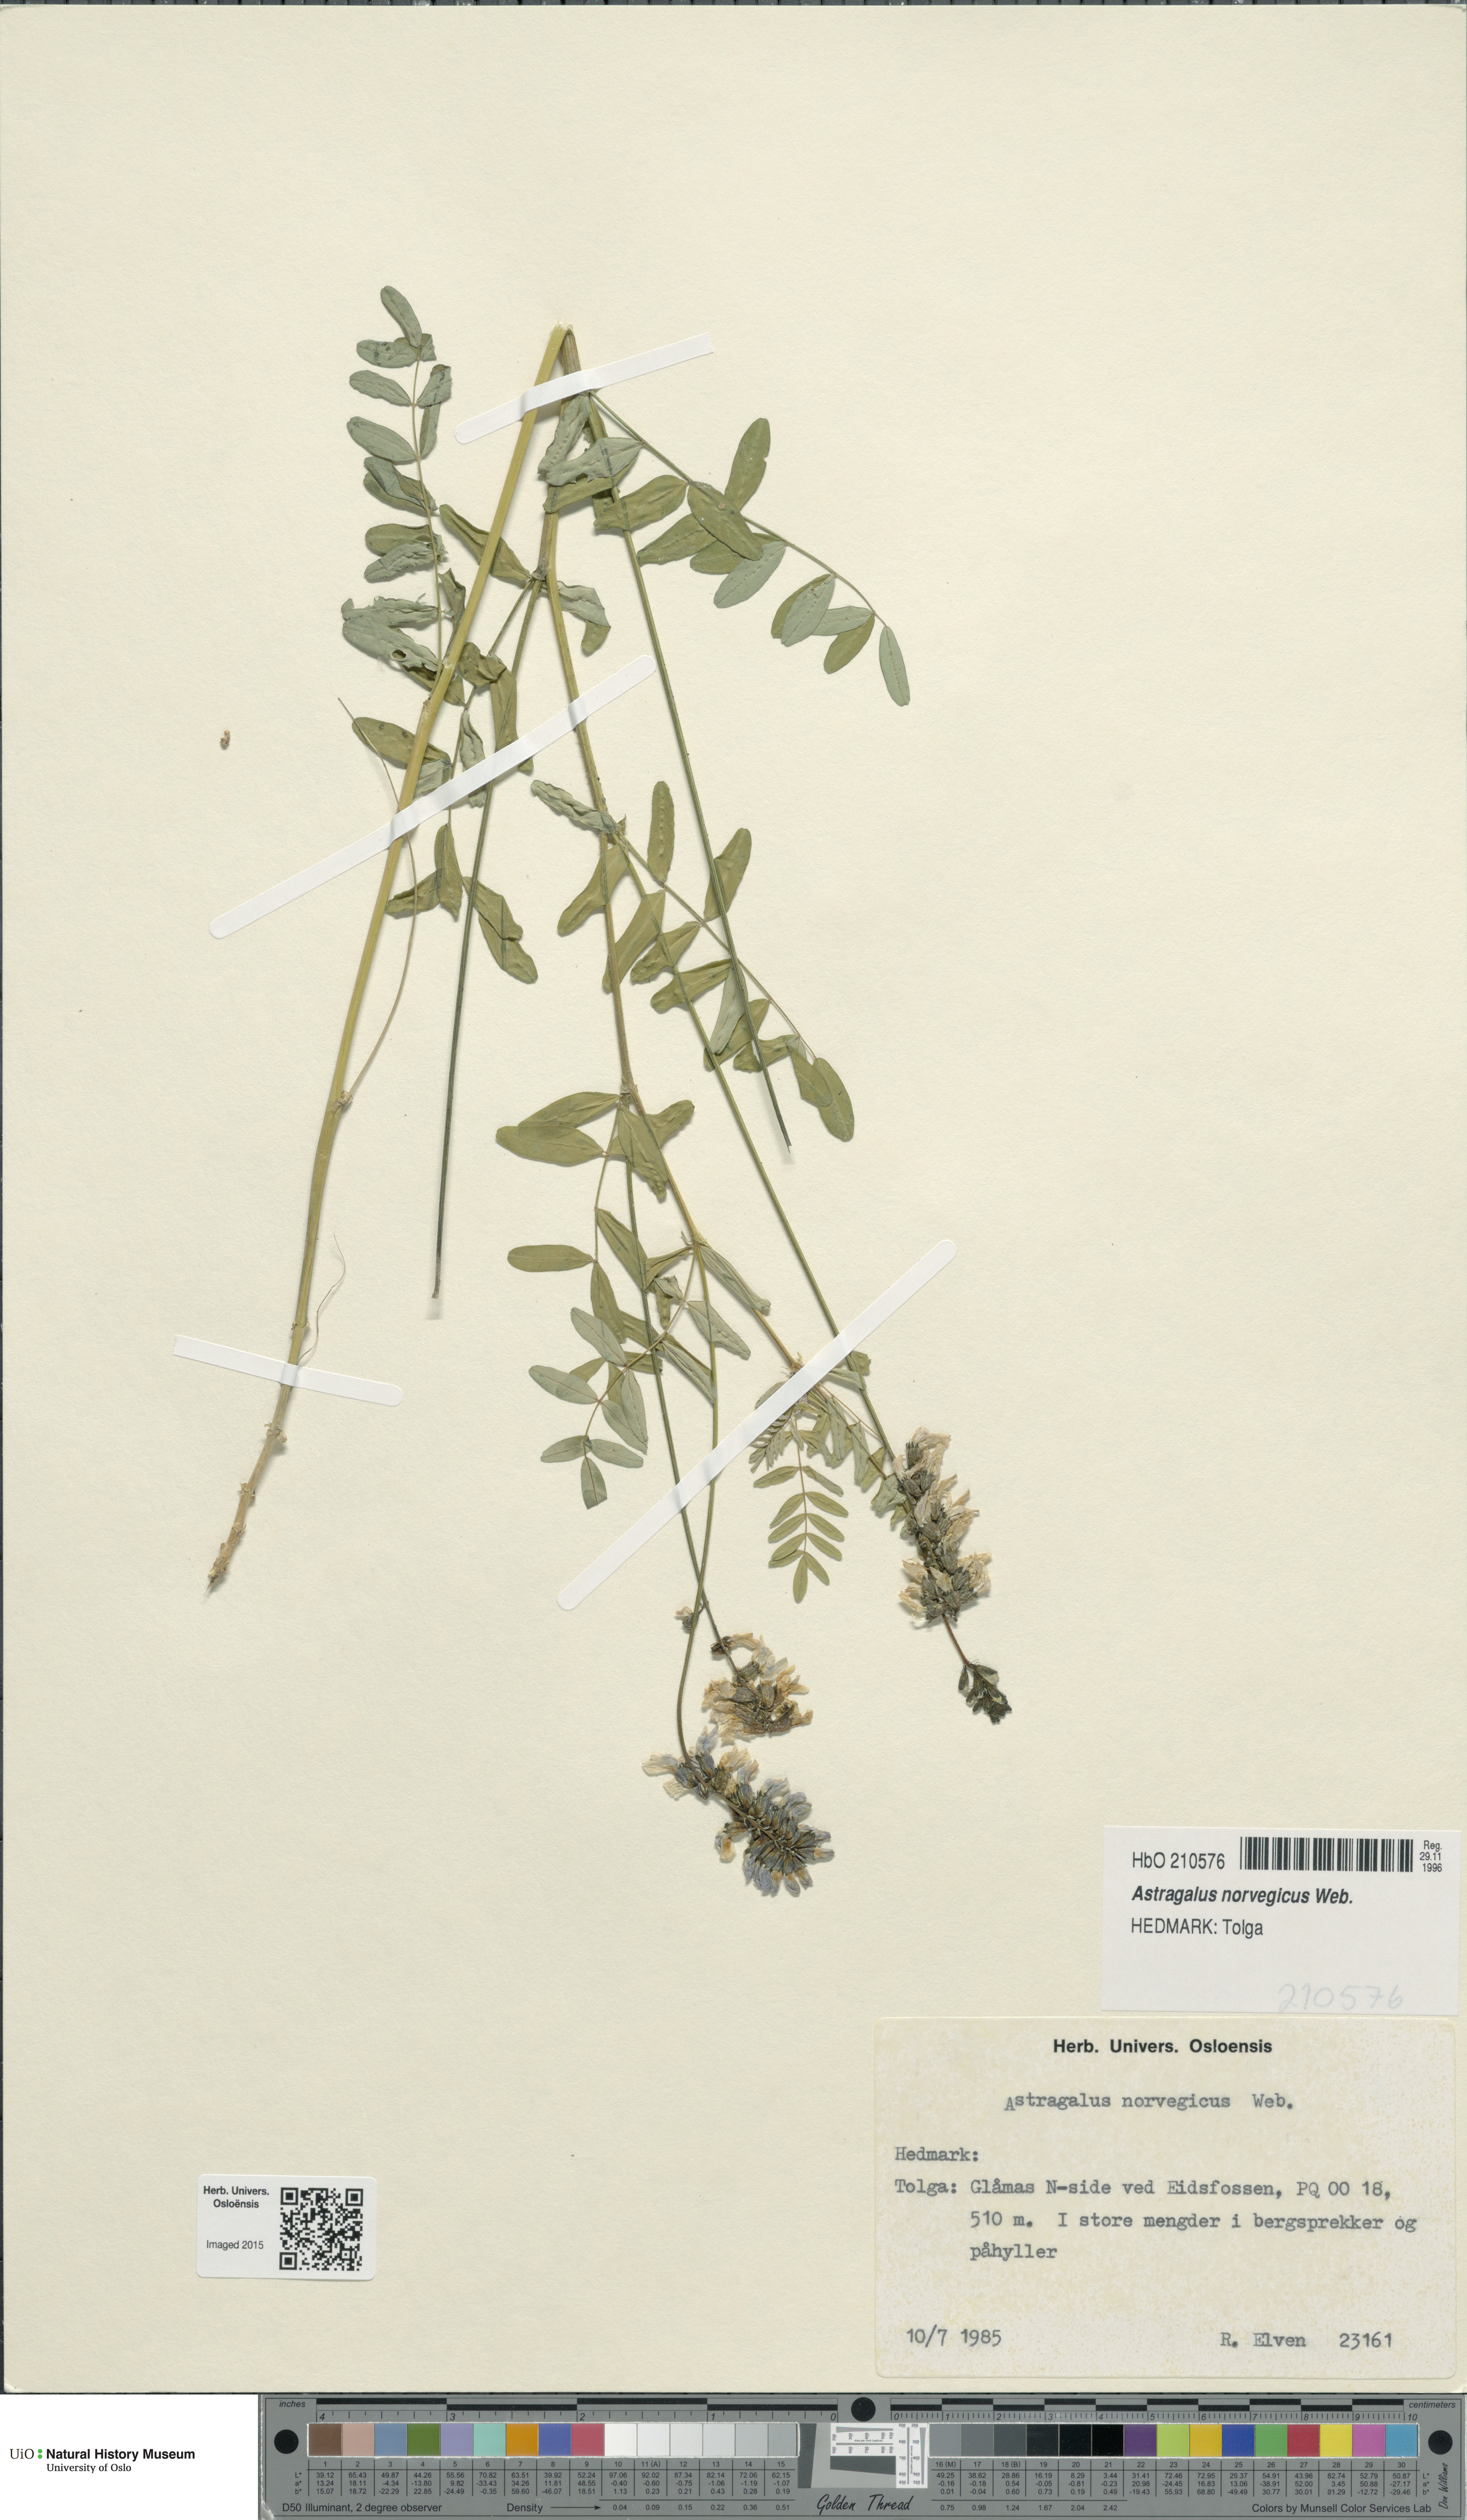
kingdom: Plantae
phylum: Tracheophyta
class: Magnoliopsida
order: Fabales
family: Fabaceae
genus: Astragalus
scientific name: Astragalus norvegicus
